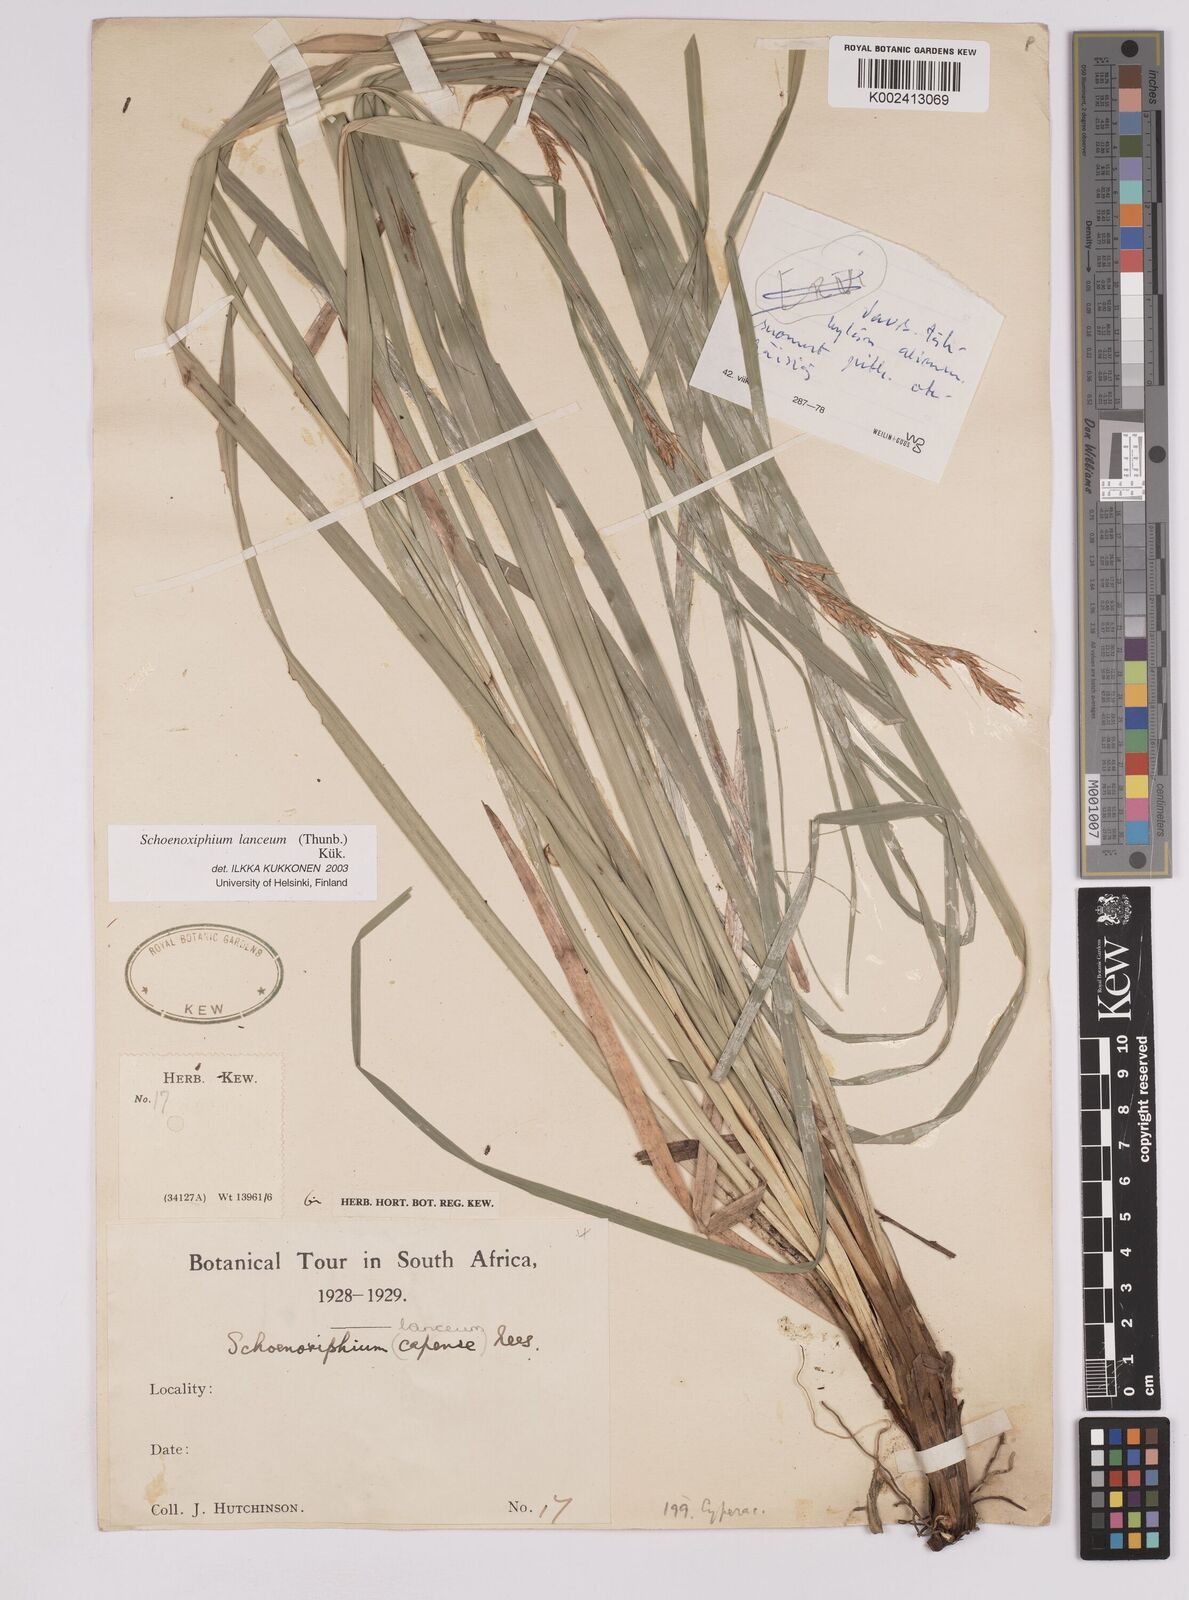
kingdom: Plantae
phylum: Tracheophyta
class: Liliopsida
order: Poales
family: Cyperaceae
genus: Carex
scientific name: Carex lancea
